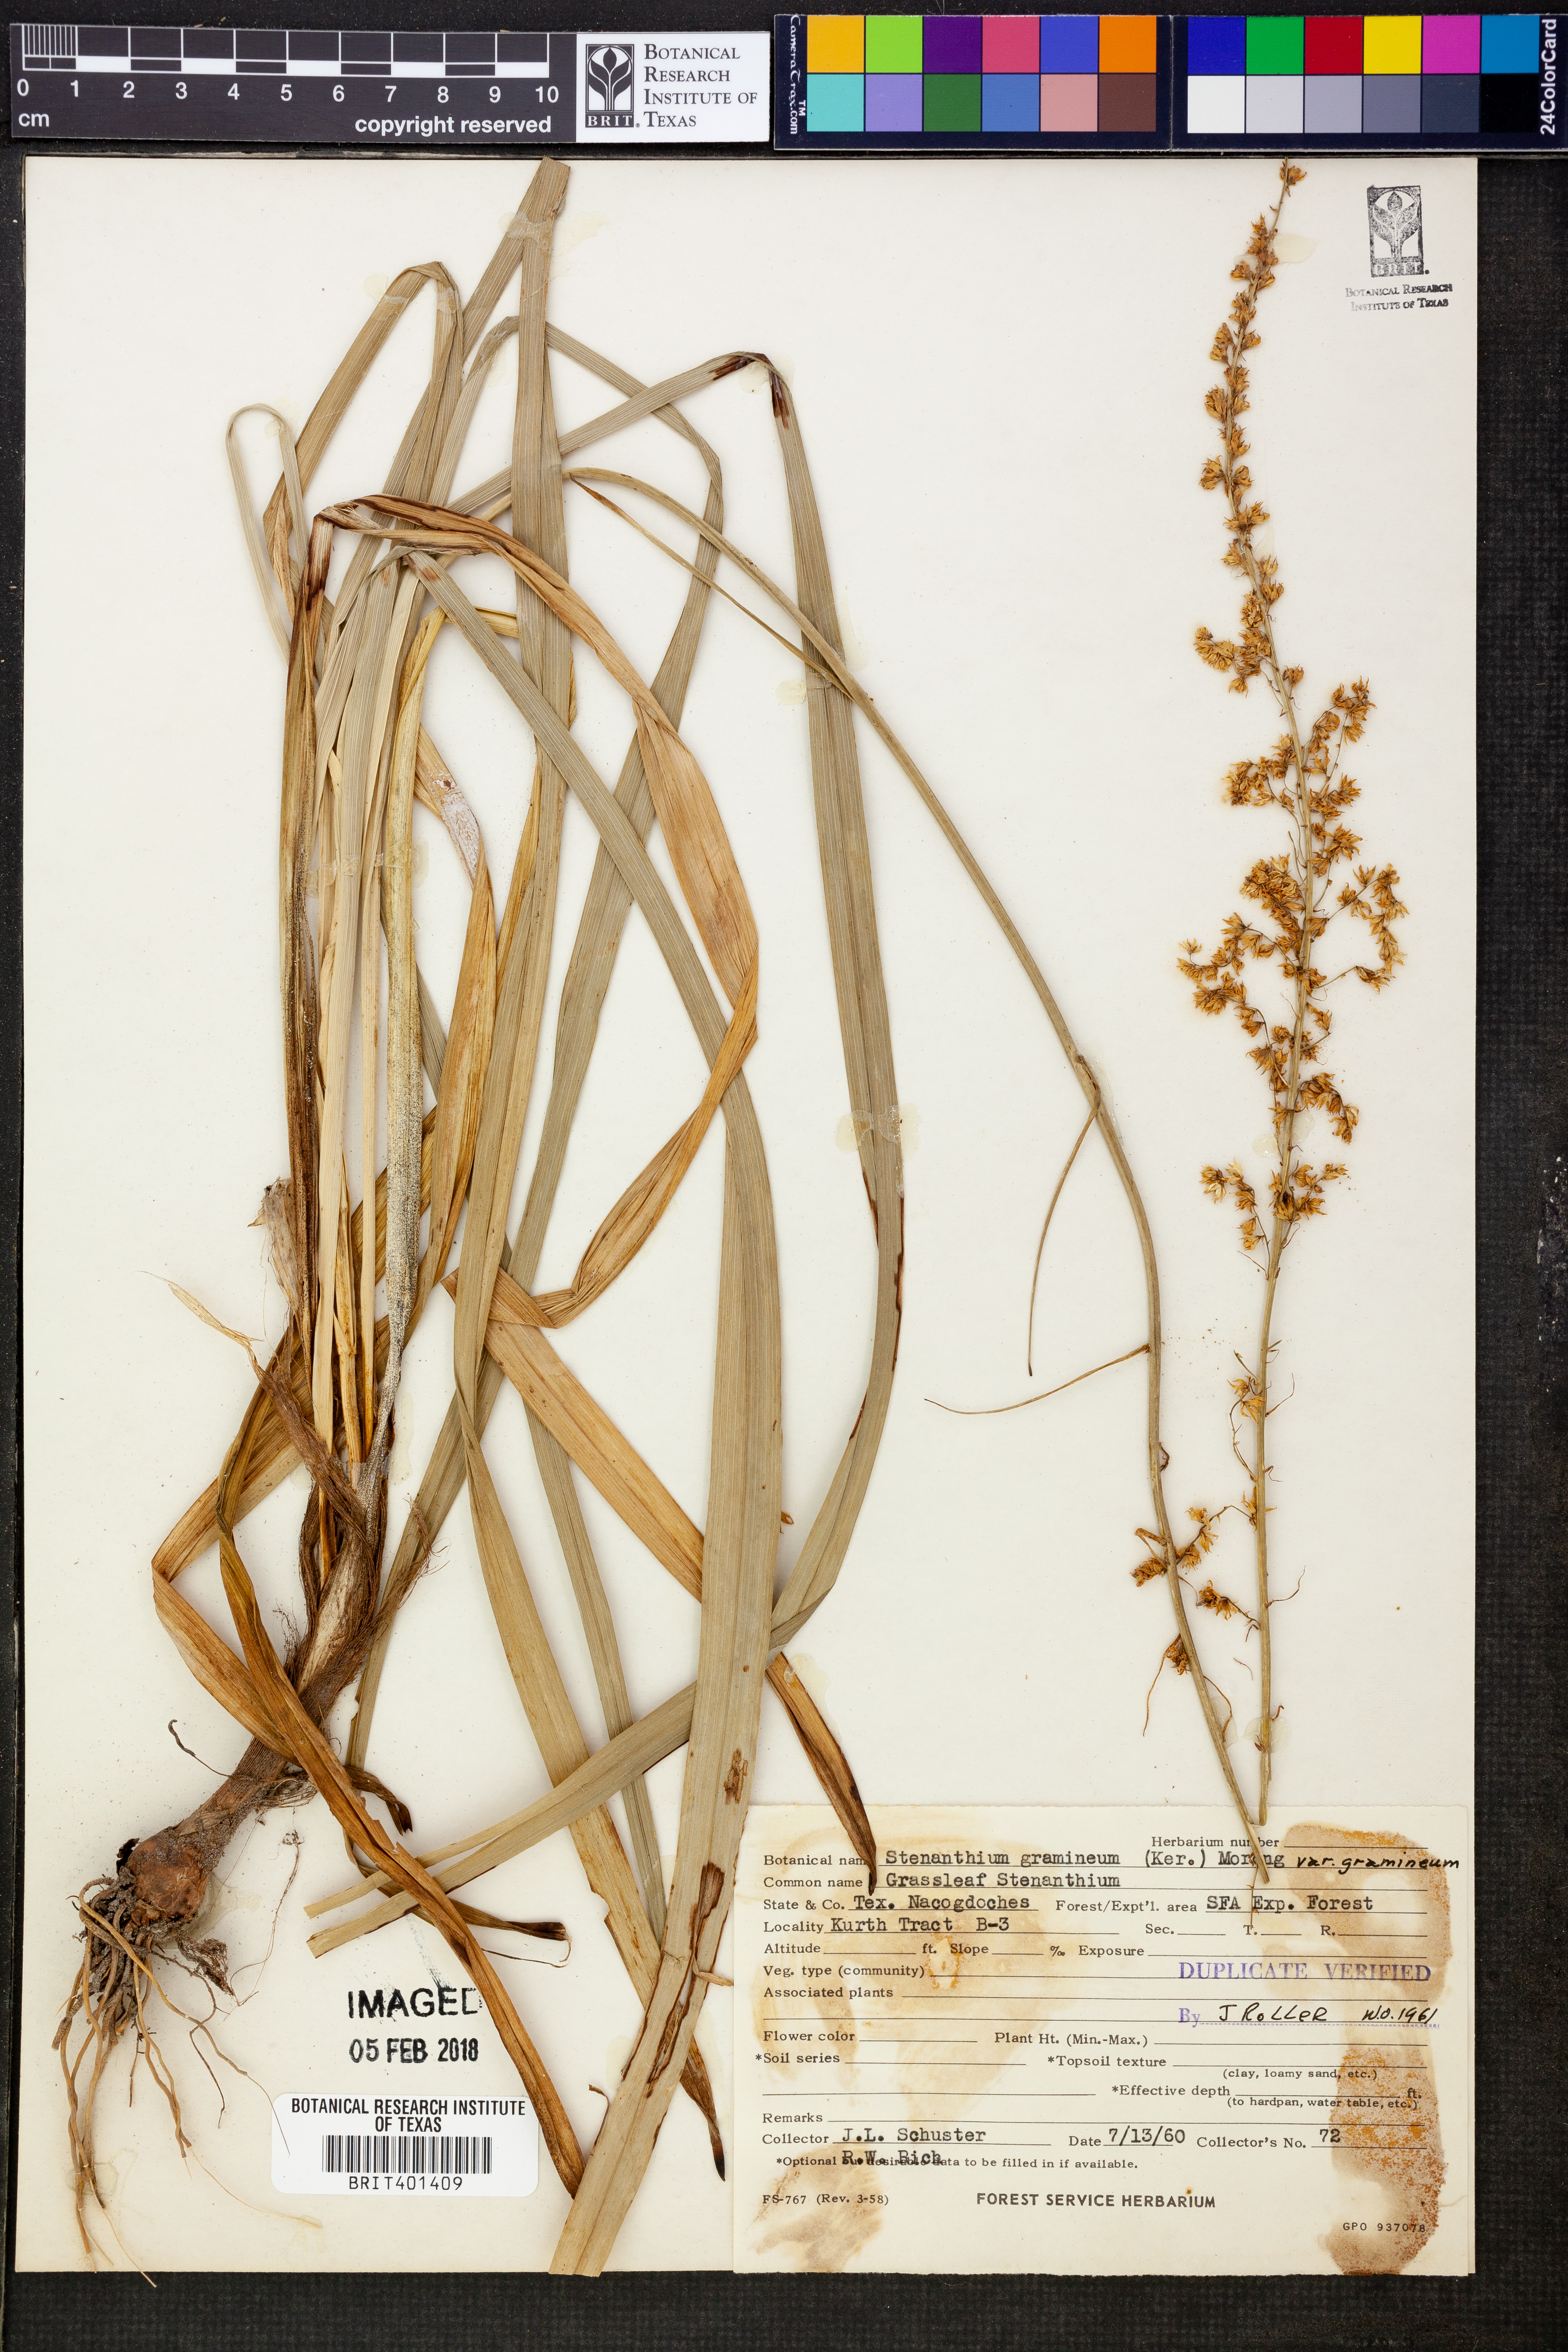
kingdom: Plantae
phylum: Tracheophyta
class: Liliopsida
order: Liliales
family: Melanthiaceae
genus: Stenanthium
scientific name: Stenanthium gramineum
